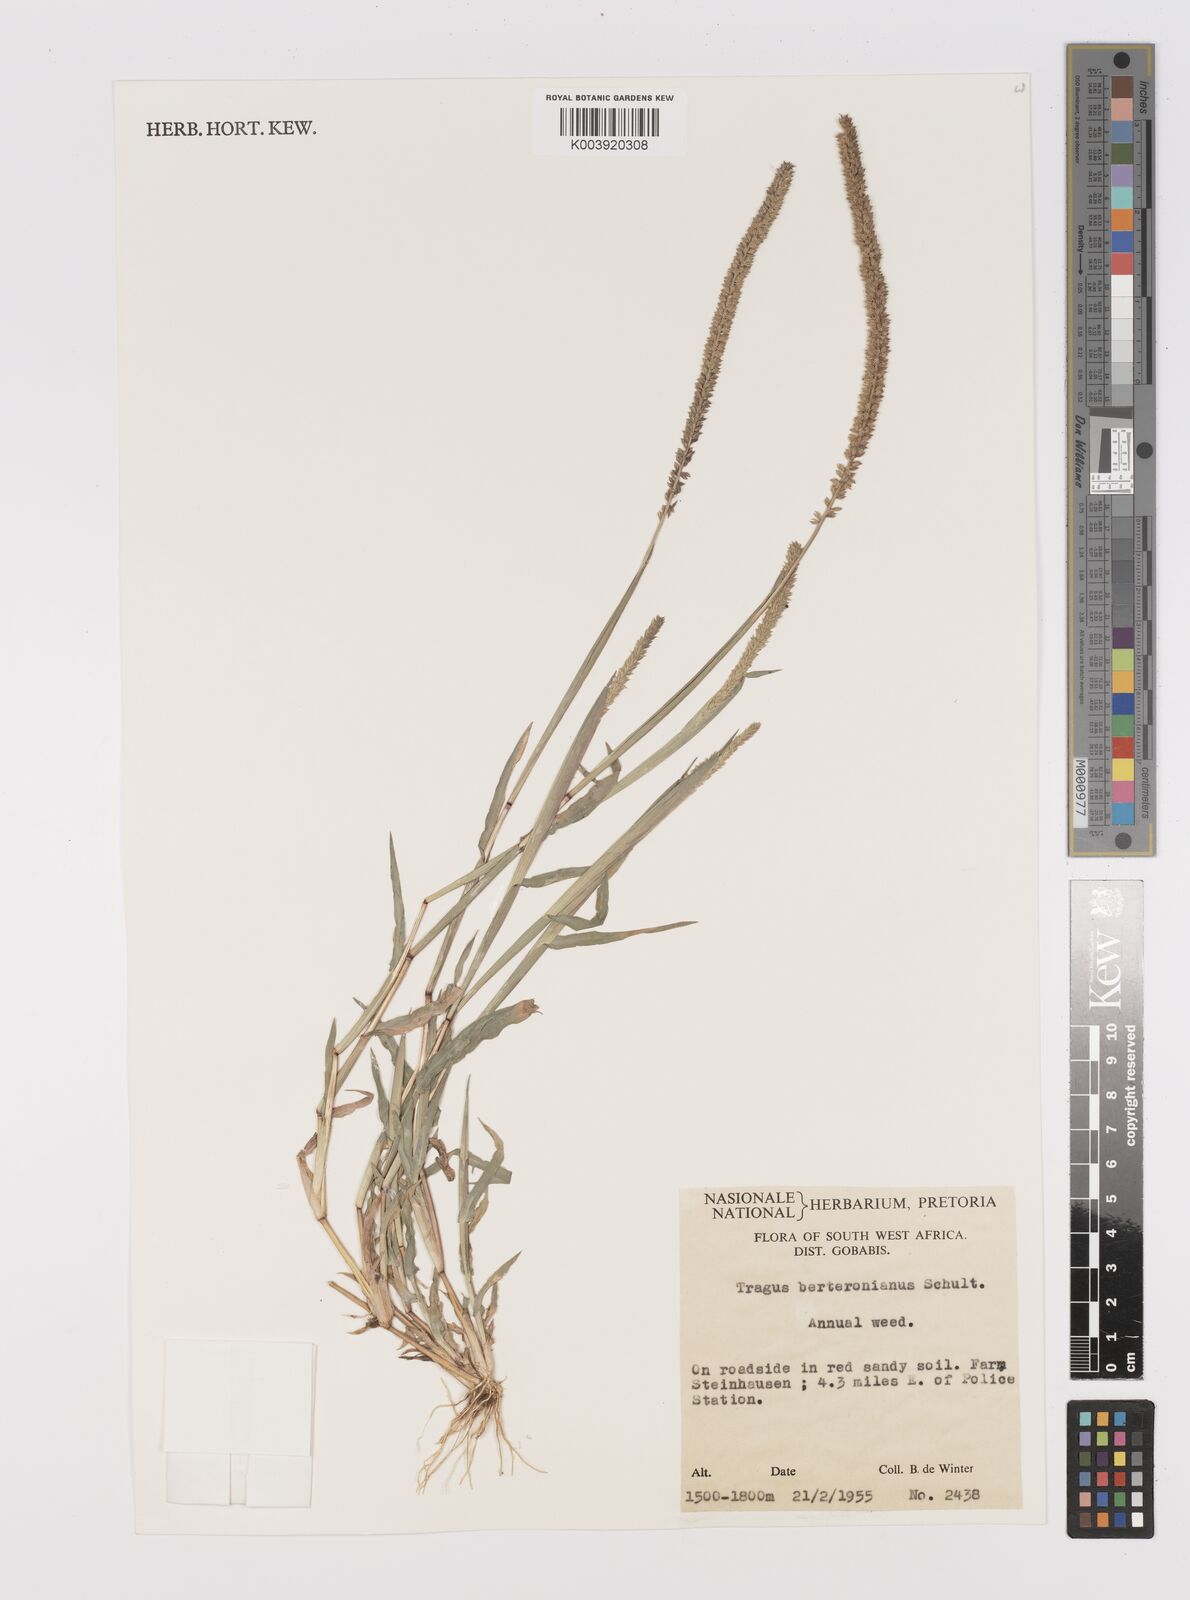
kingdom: Plantae
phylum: Tracheophyta
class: Liliopsida
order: Poales
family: Poaceae
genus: Tragus
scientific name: Tragus berteronianus
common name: African bur-grass
